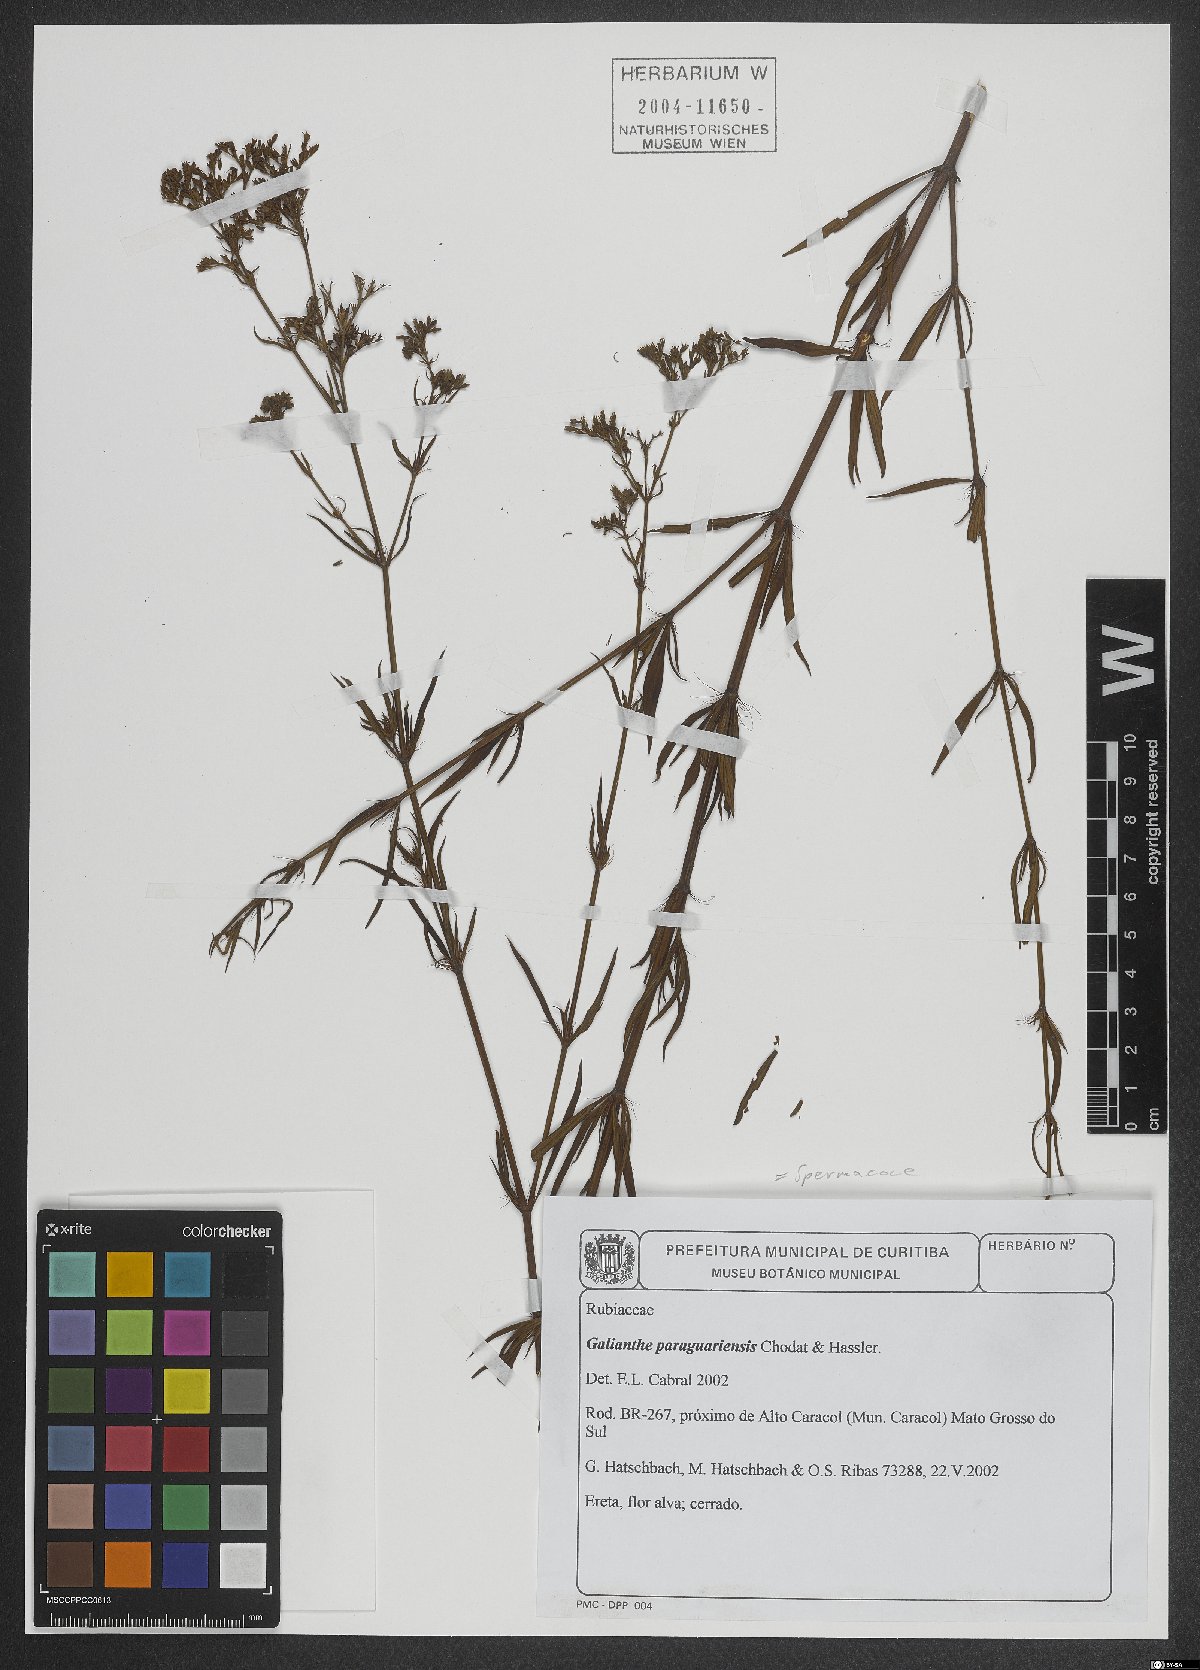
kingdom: Plantae
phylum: Tracheophyta
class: Magnoliopsida
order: Gentianales
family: Rubiaceae
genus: Galianthe
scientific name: Galianthe laxa
